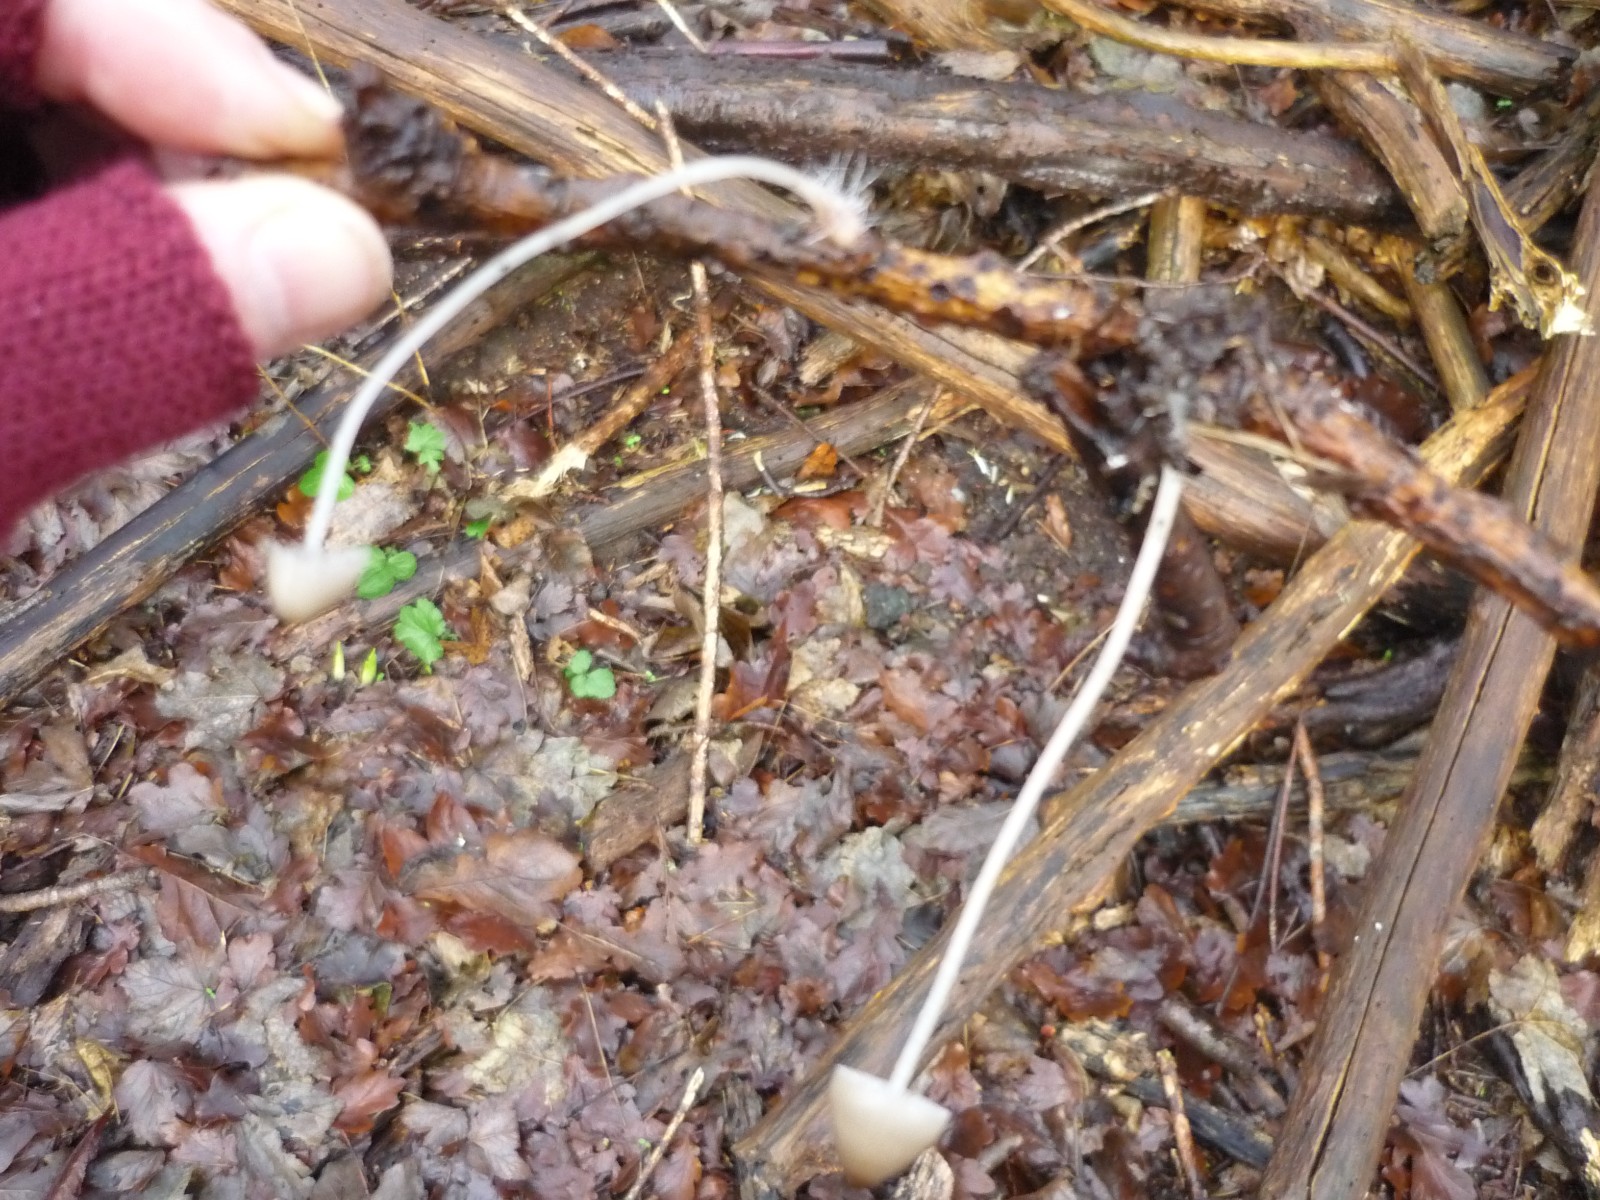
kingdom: Fungi
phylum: Basidiomycota
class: Agaricomycetes
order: Agaricales
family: Mycenaceae
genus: Mycena
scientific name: Mycena
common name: huesvamp
